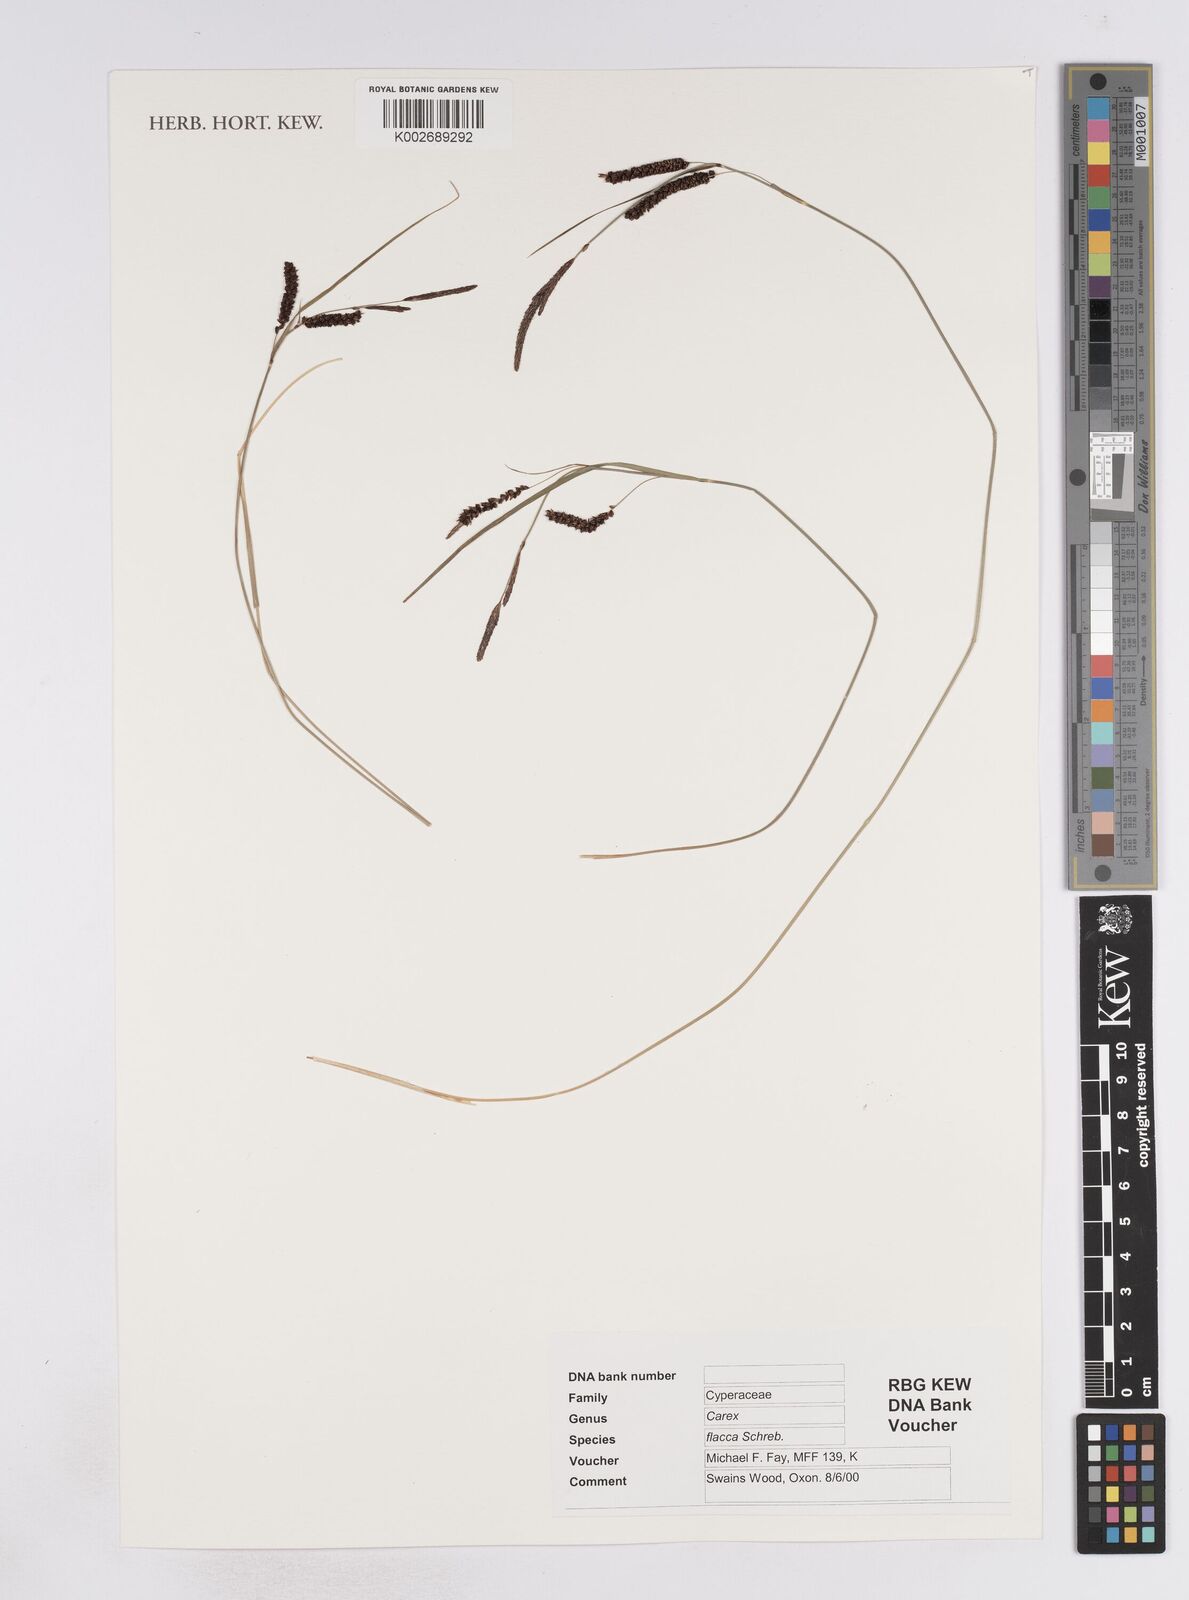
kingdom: Plantae
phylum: Tracheophyta
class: Liliopsida
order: Poales
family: Cyperaceae
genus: Carex
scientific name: Carex flacca
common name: Glaucous sedge
